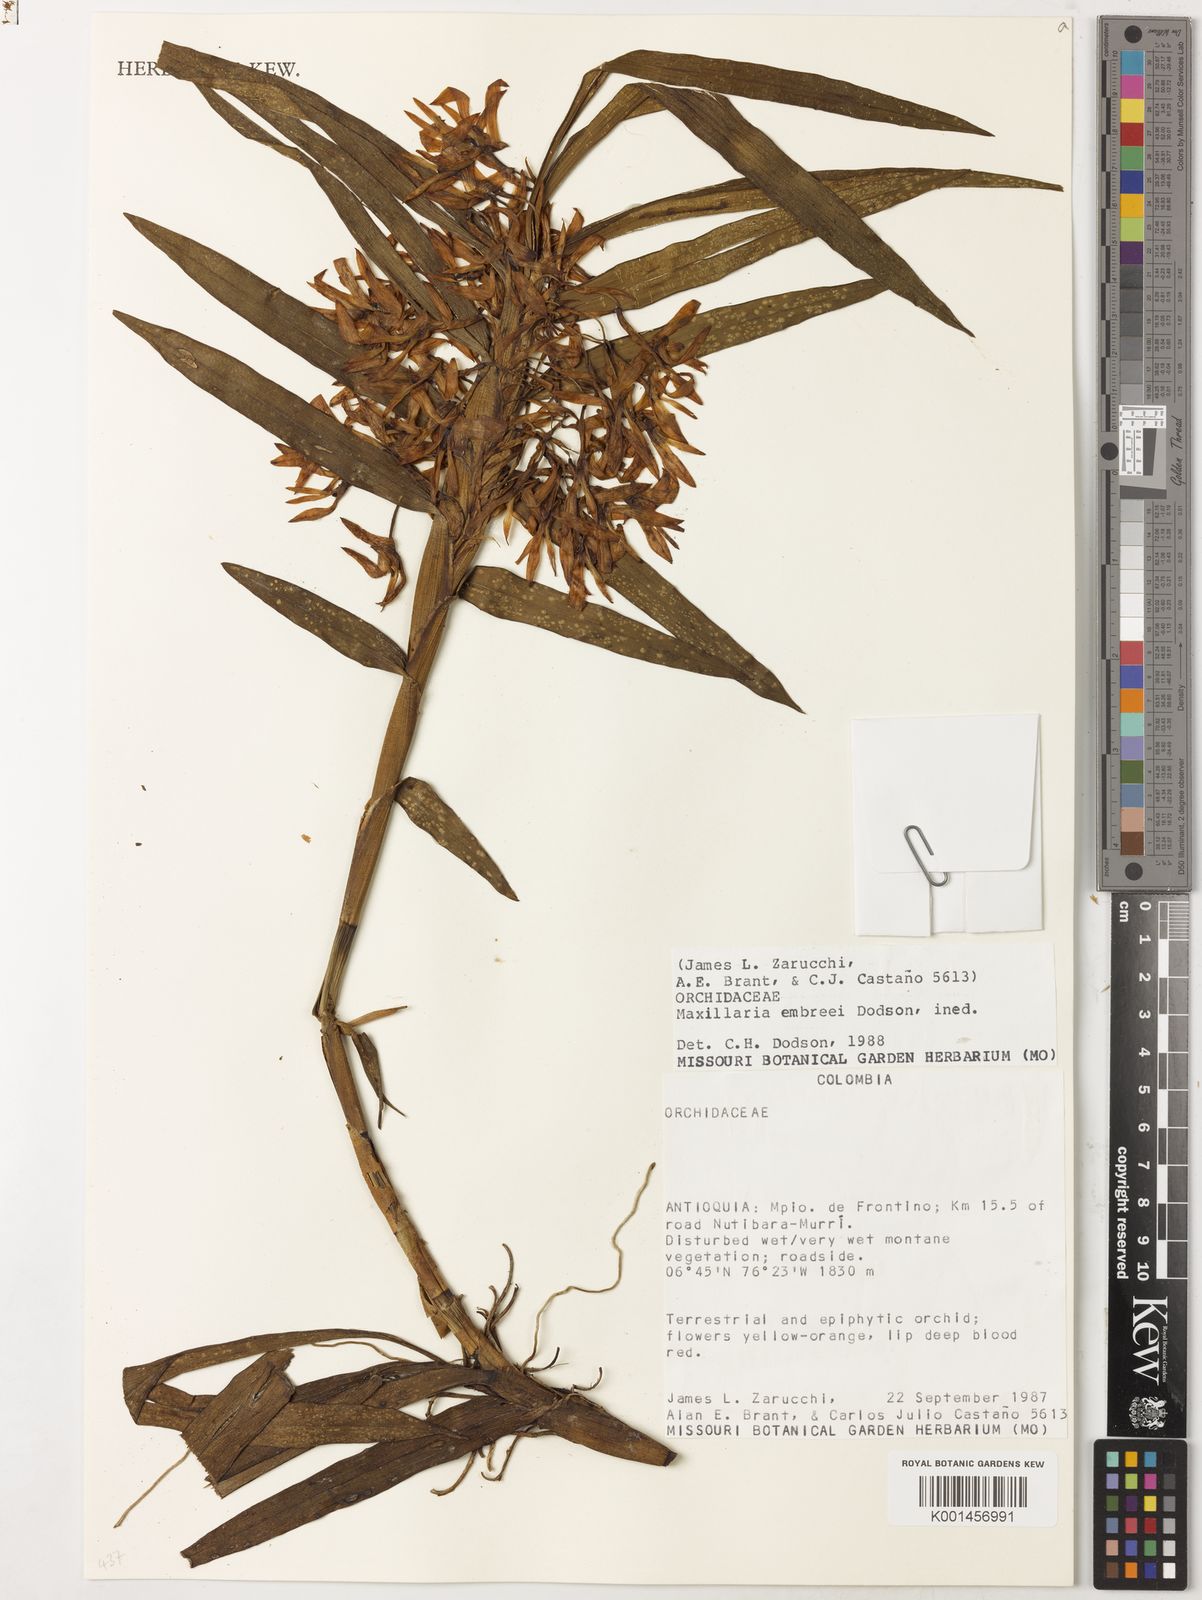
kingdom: Plantae
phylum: Tracheophyta
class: Liliopsida
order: Asparagales
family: Orchidaceae
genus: Maxillaria
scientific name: Maxillaria embreei
